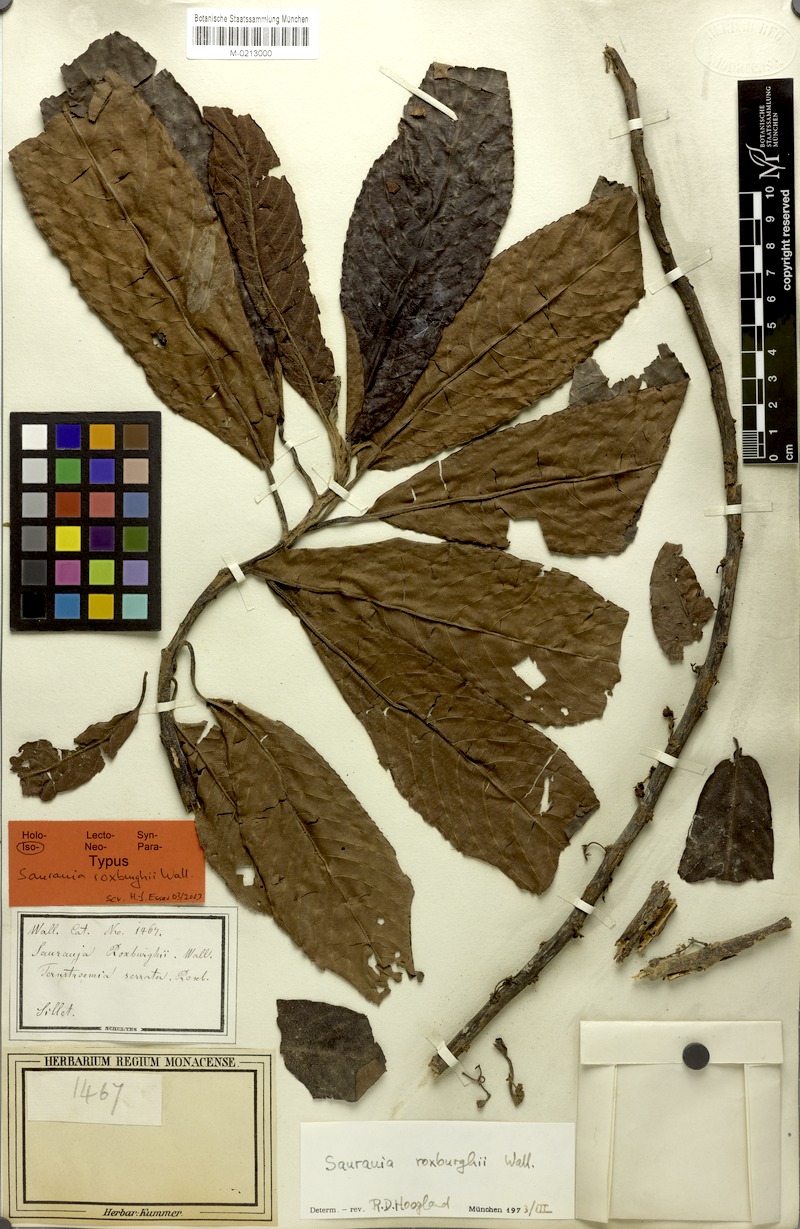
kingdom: Plantae
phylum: Tracheophyta
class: Magnoliopsida
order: Ericales
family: Actinidiaceae
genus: Saurauia
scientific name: Saurauia roxburghii
